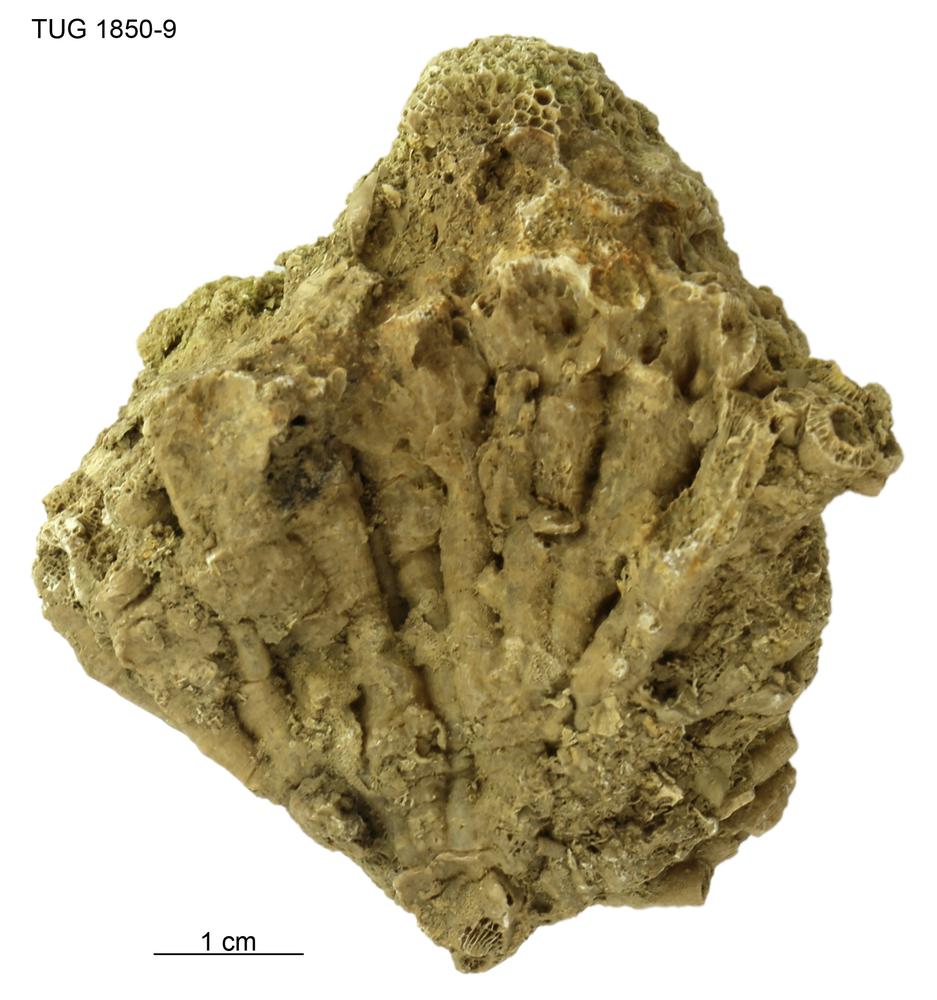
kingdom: Animalia
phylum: Cnidaria
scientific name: Cnidaria
